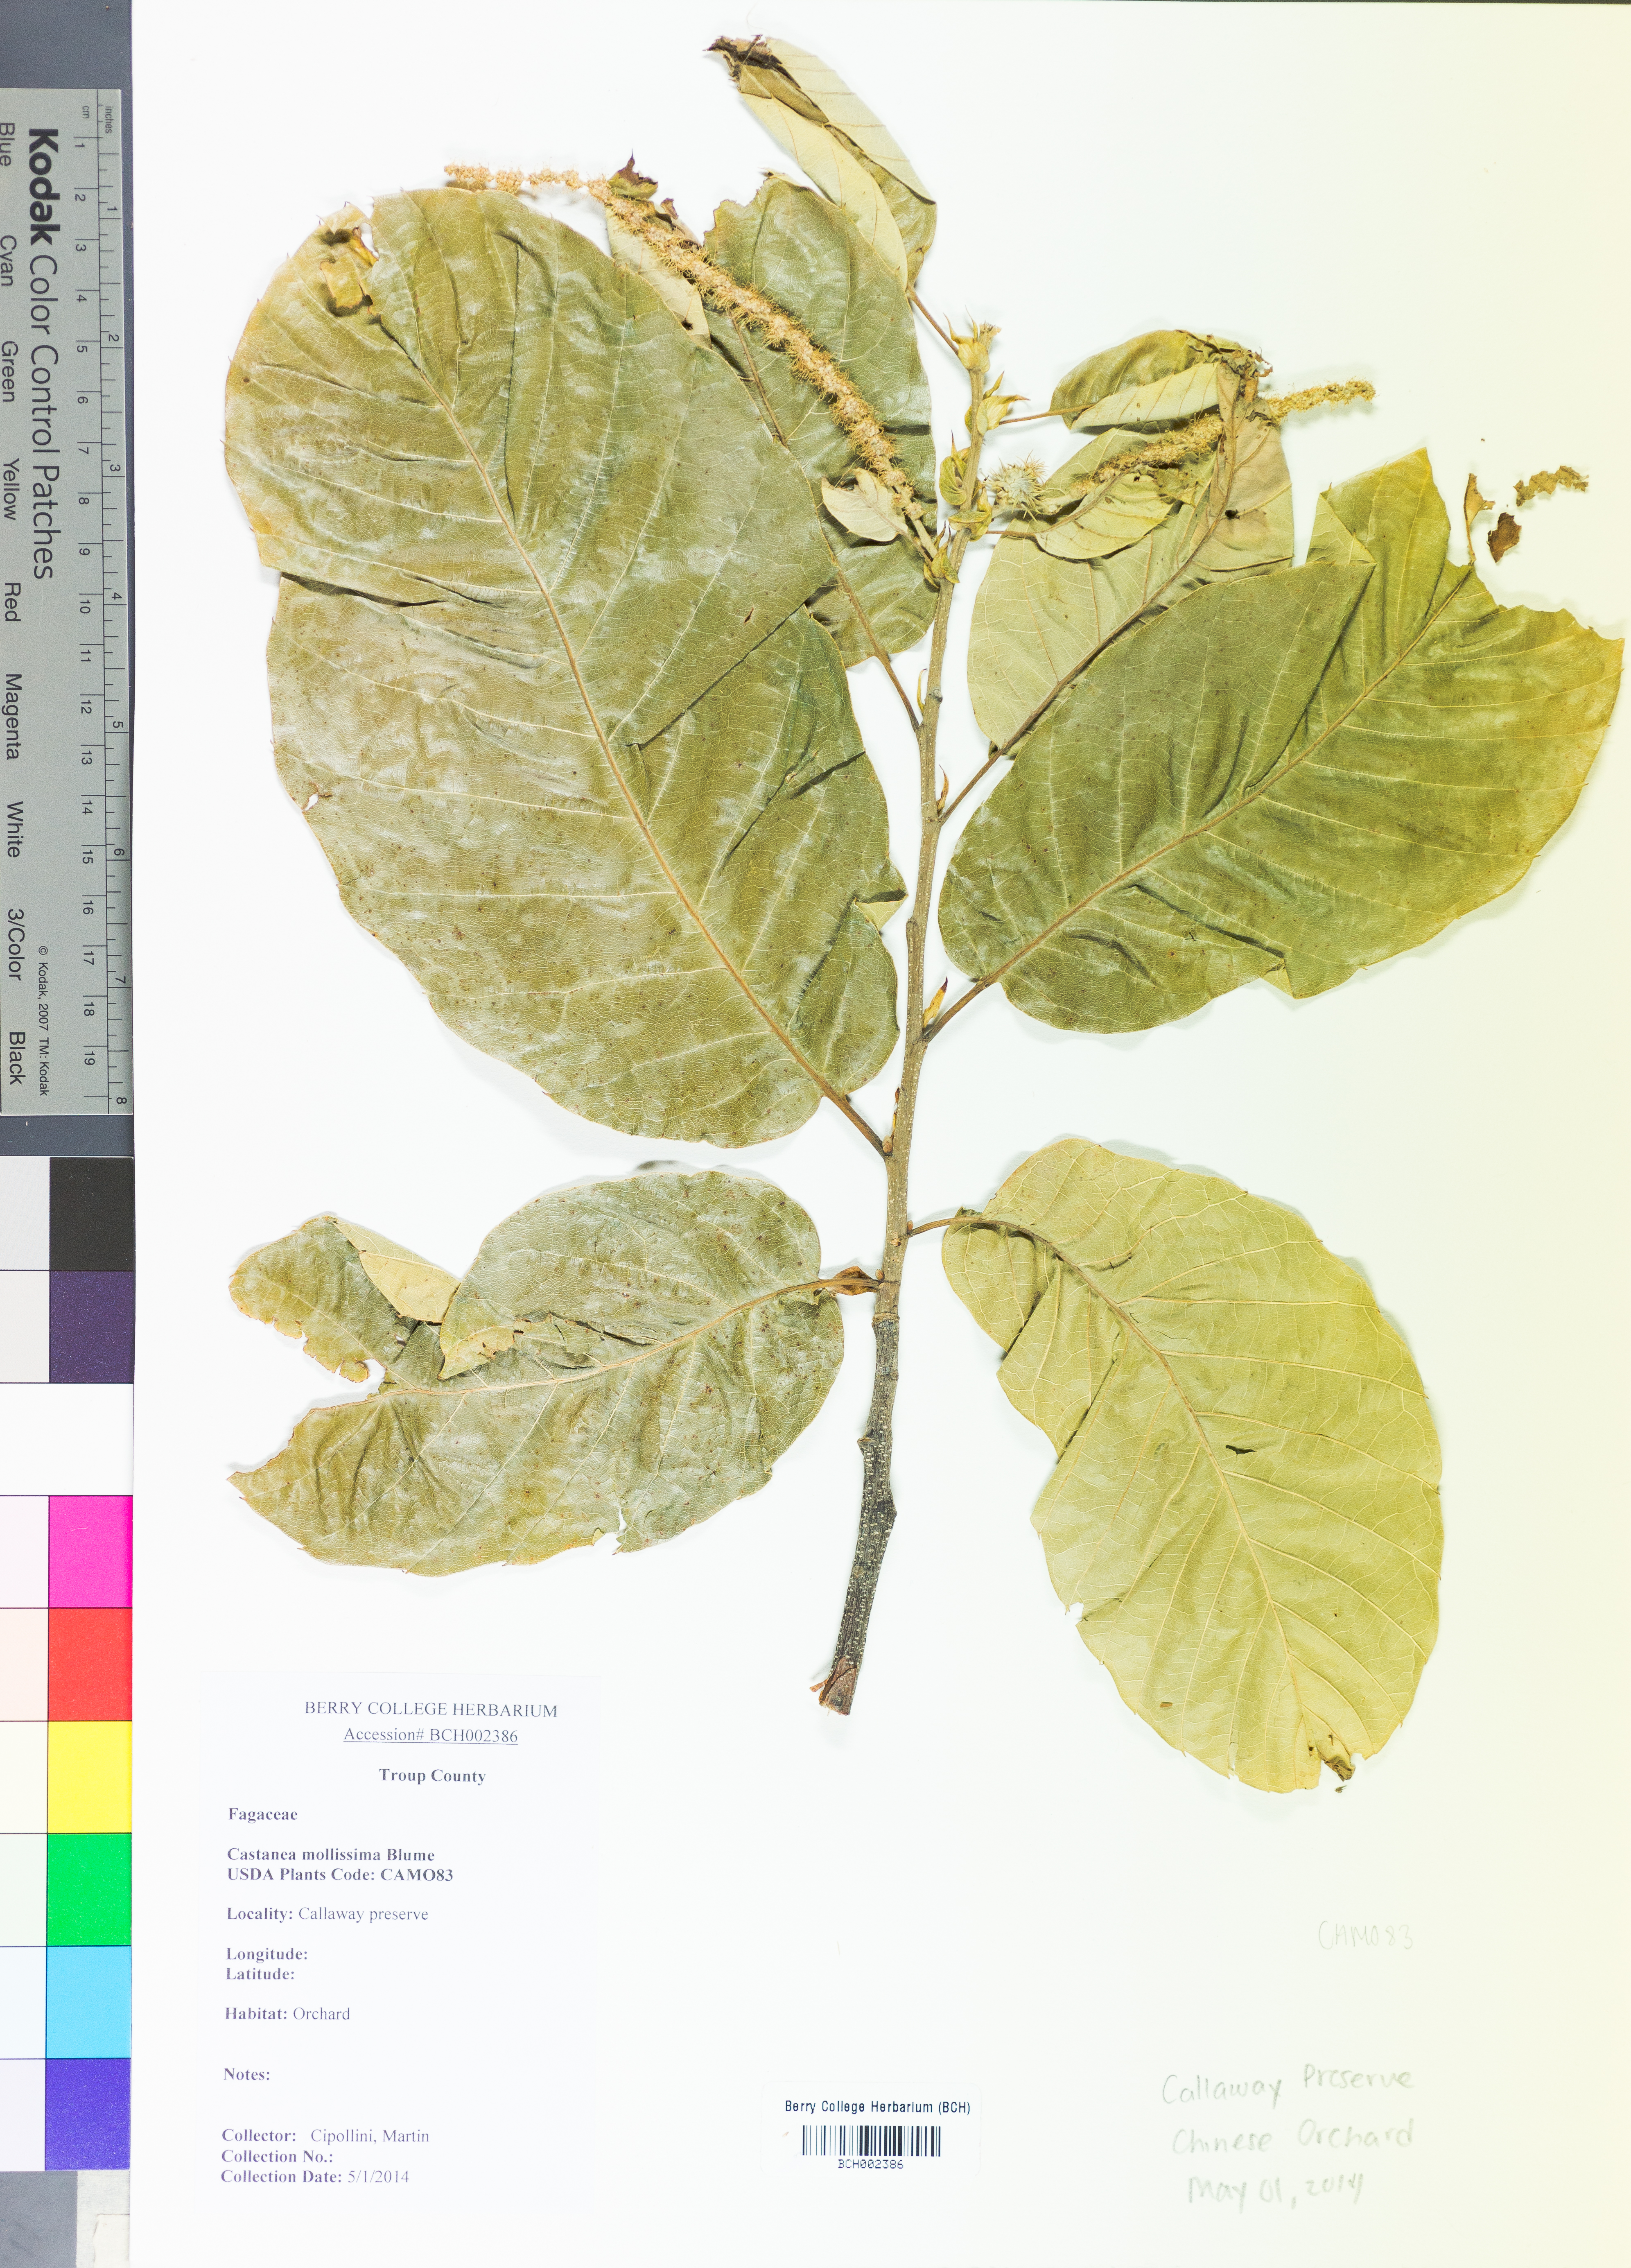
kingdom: Plantae
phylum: Tracheophyta
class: Magnoliopsida
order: Fagales
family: Fagaceae
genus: Castanea
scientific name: Castanea mollissima
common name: Chinese chestnut
